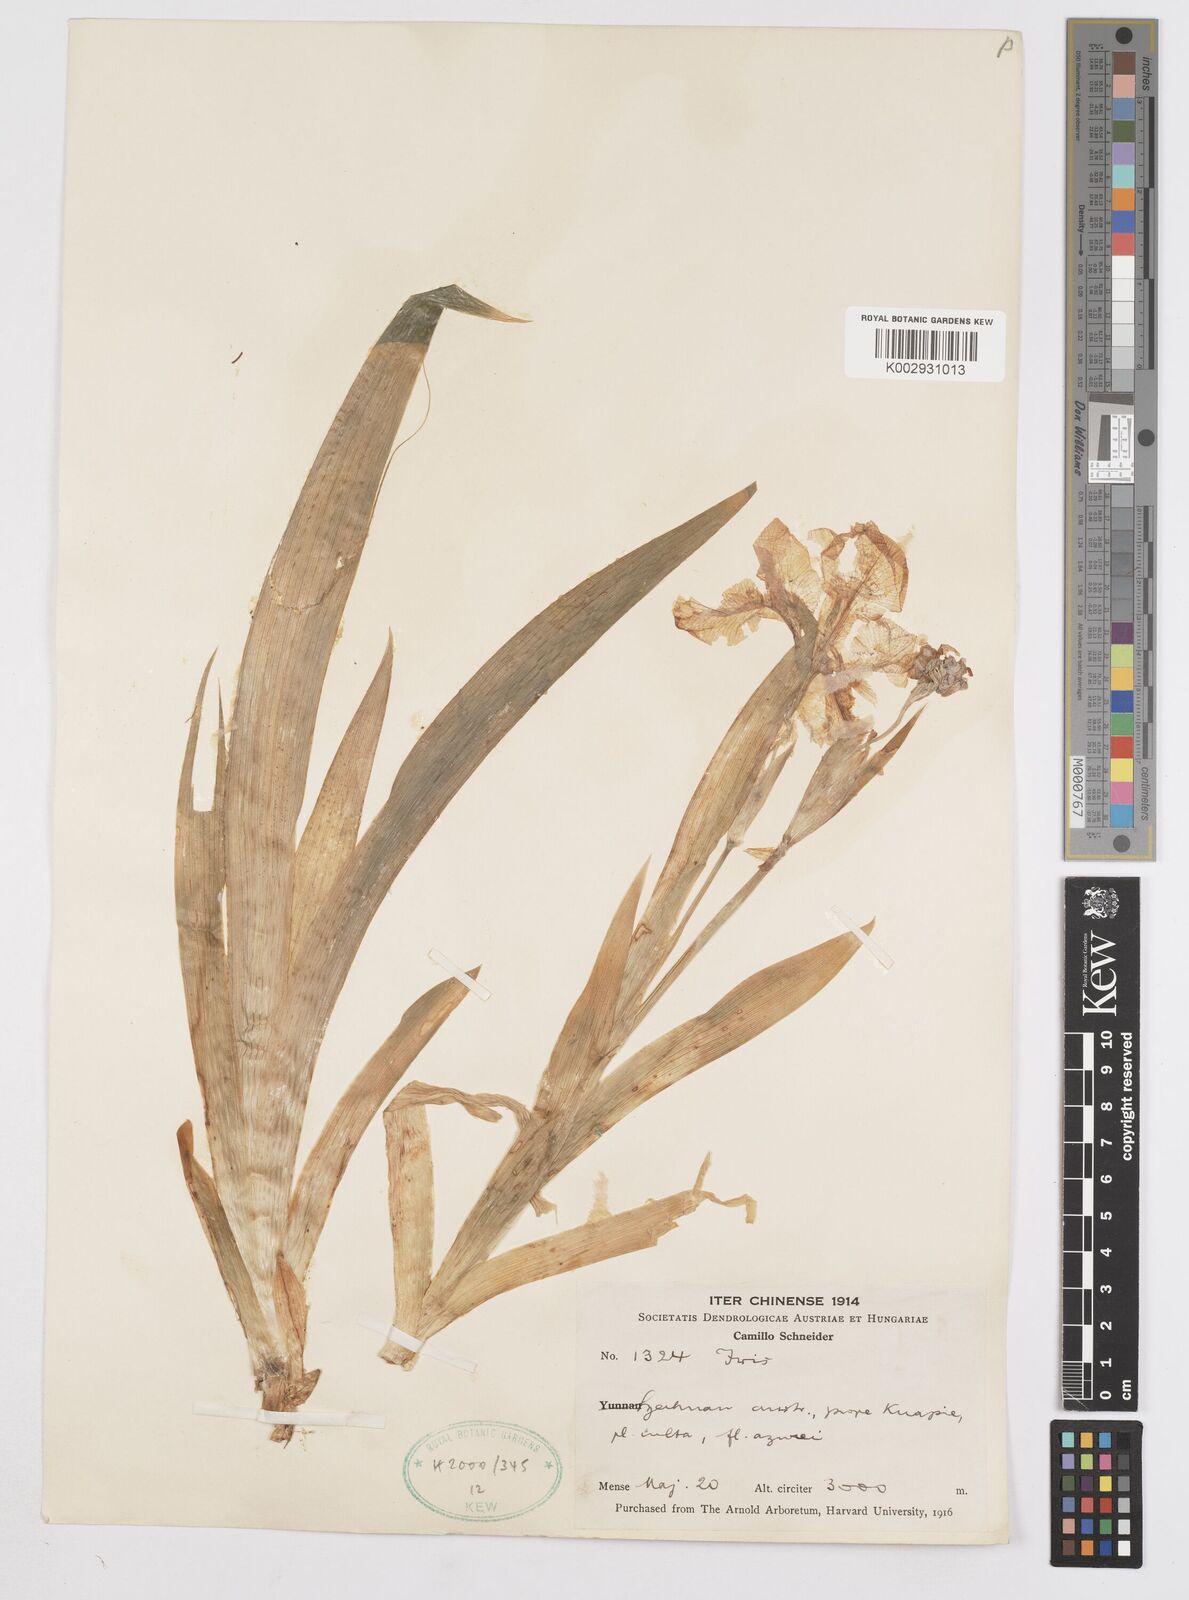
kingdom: Plantae
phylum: Tracheophyta
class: Liliopsida
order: Asparagales
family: Iridaceae
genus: Iris
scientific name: Iris
